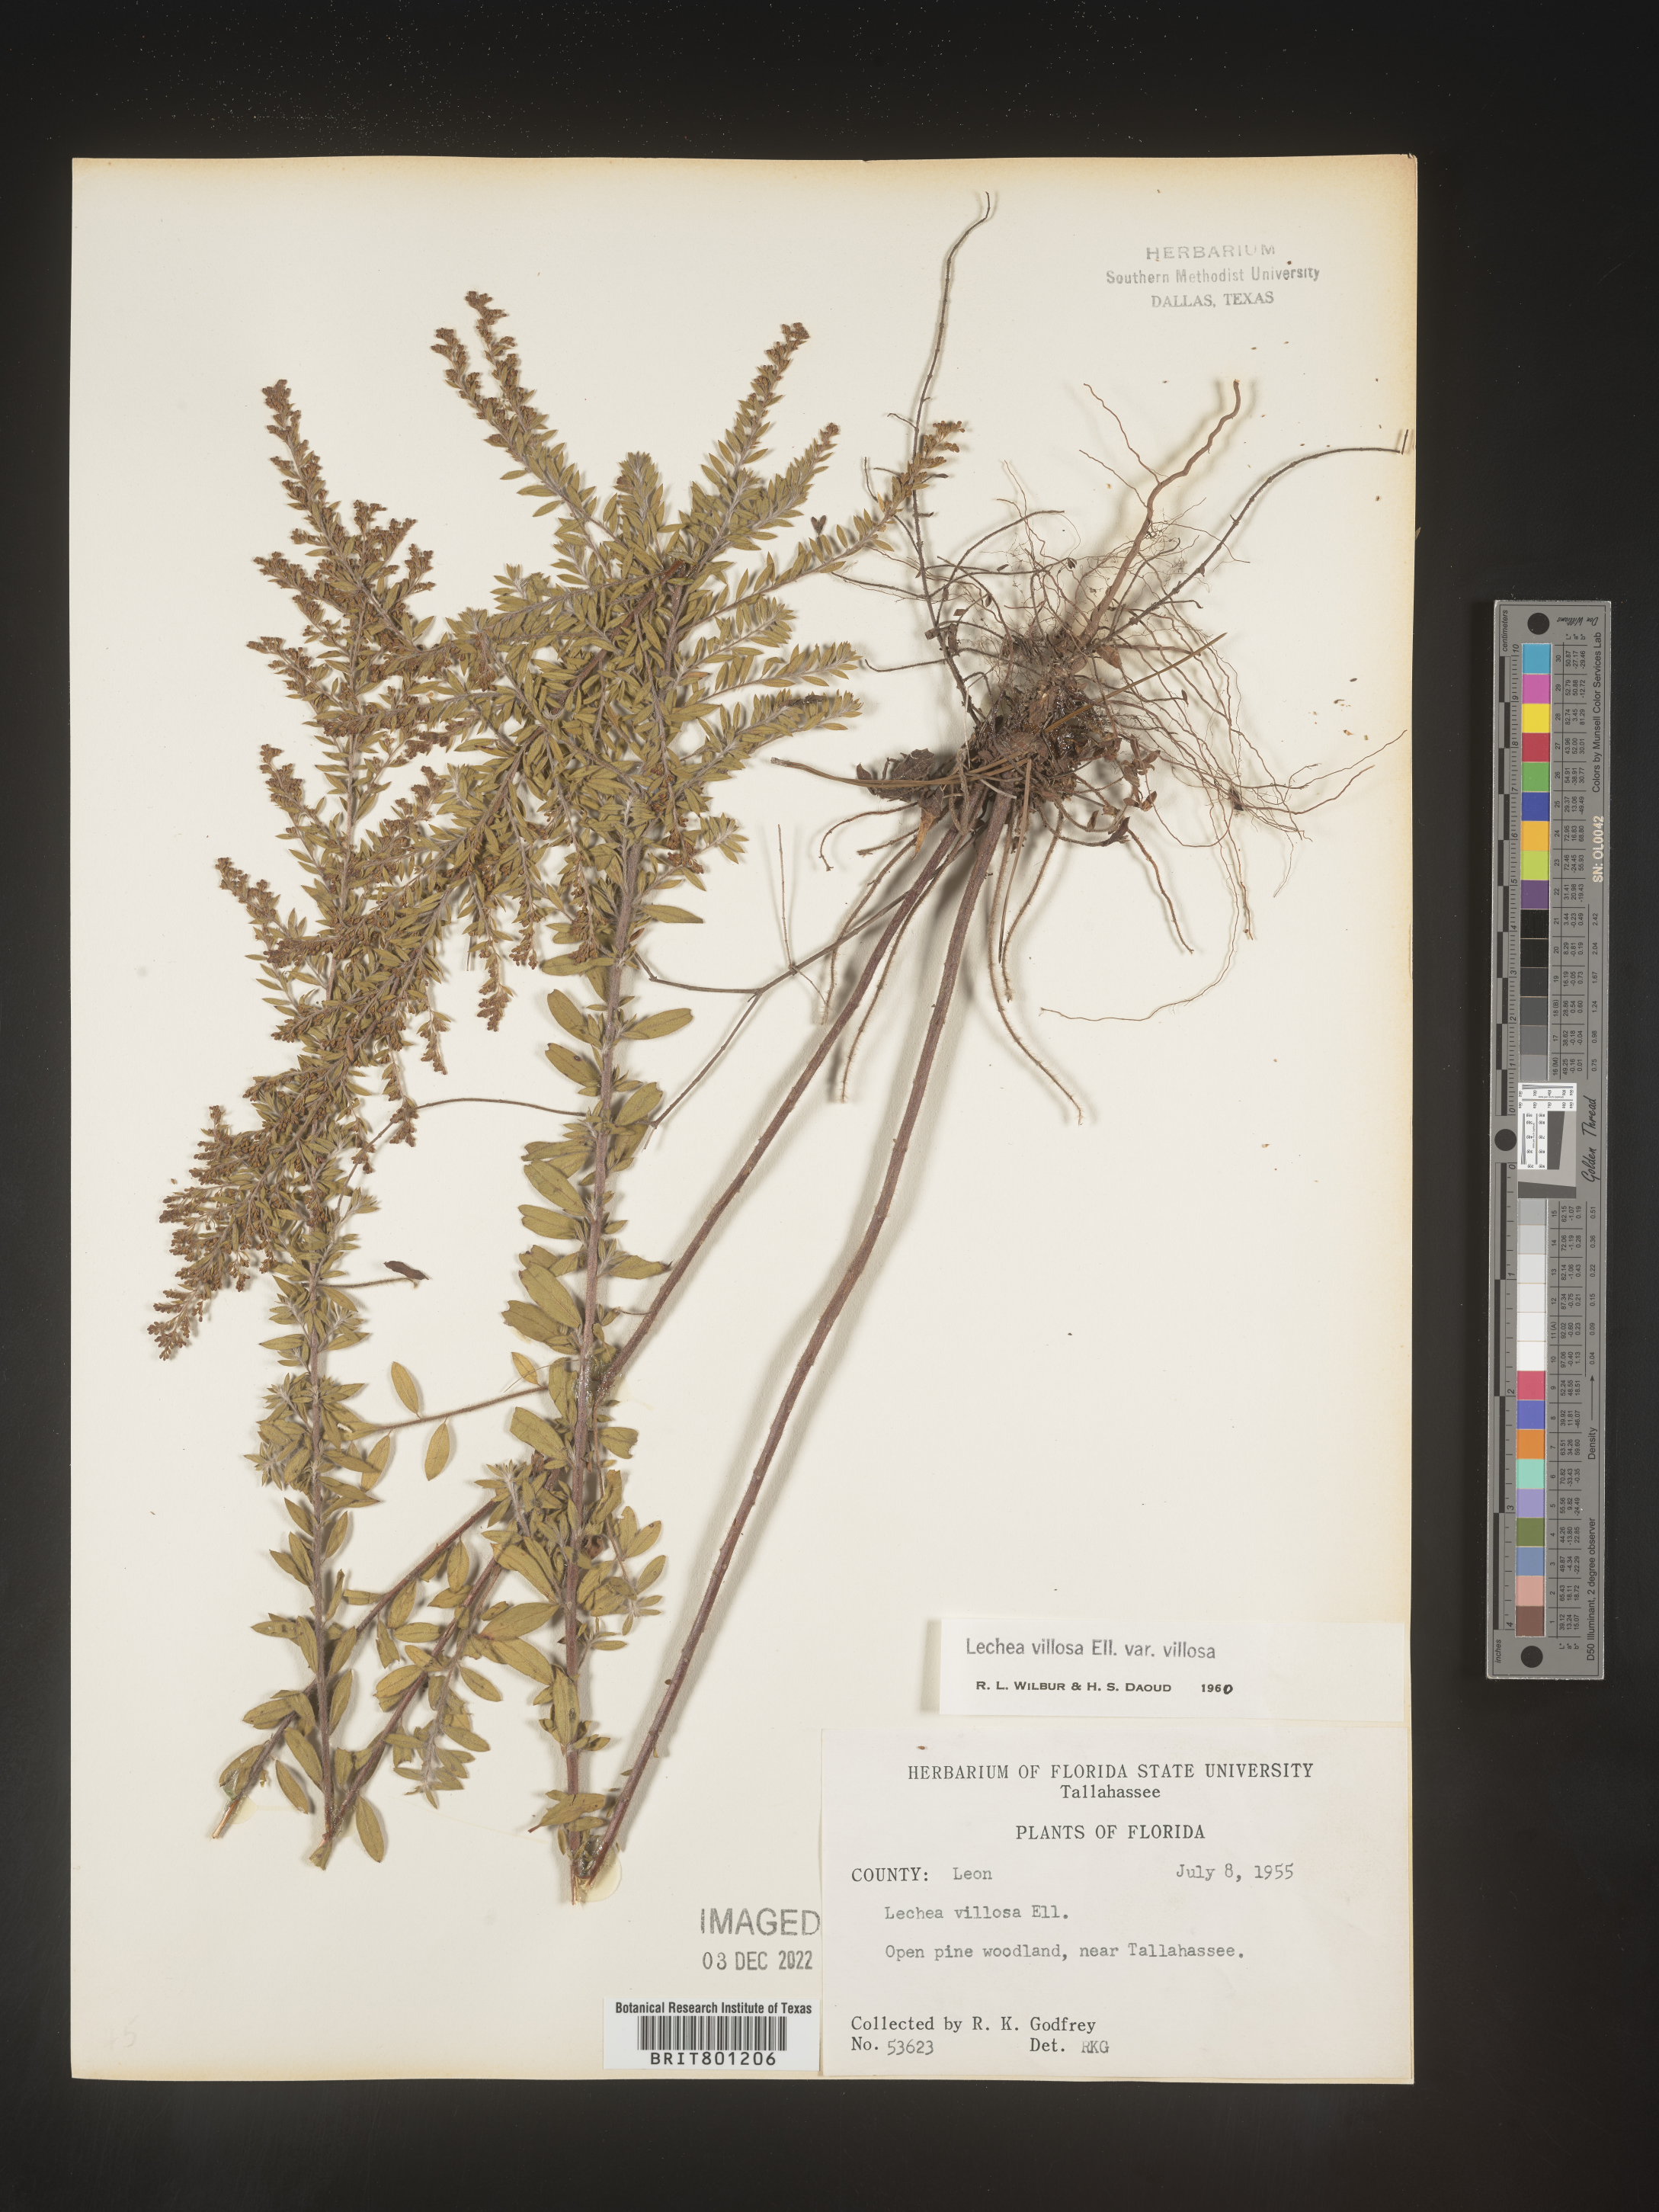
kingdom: Plantae
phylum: Tracheophyta
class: Magnoliopsida
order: Malvales
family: Cistaceae
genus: Lechea
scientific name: Lechea mucronata
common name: Hairy pinweed
